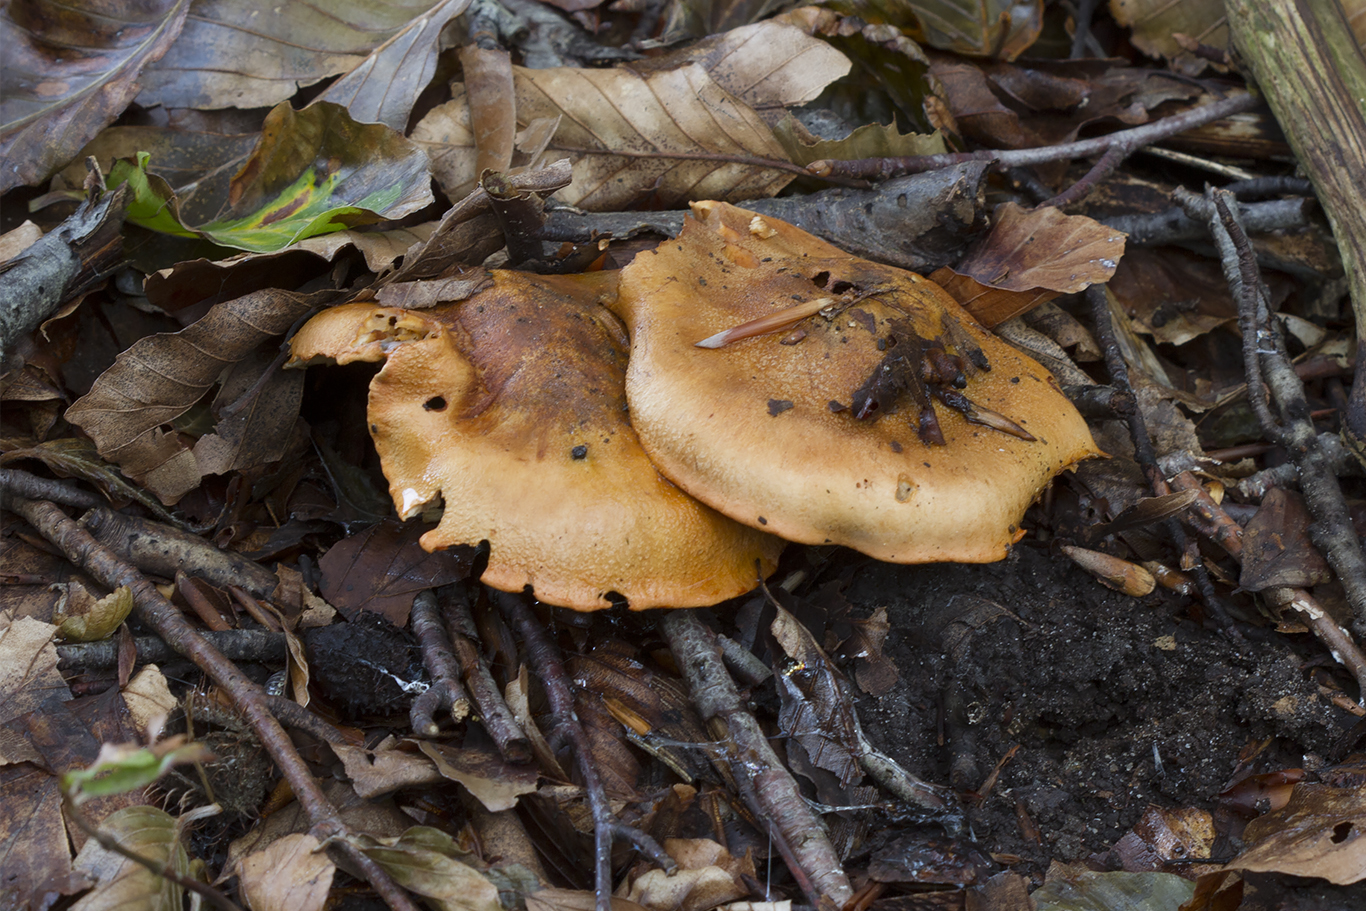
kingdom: Fungi
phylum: Basidiomycota
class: Agaricomycetes
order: Agaricales
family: Tricholomataceae
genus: Tricholoma
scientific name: Tricholoma aurantium
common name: orangegul ridderhat
